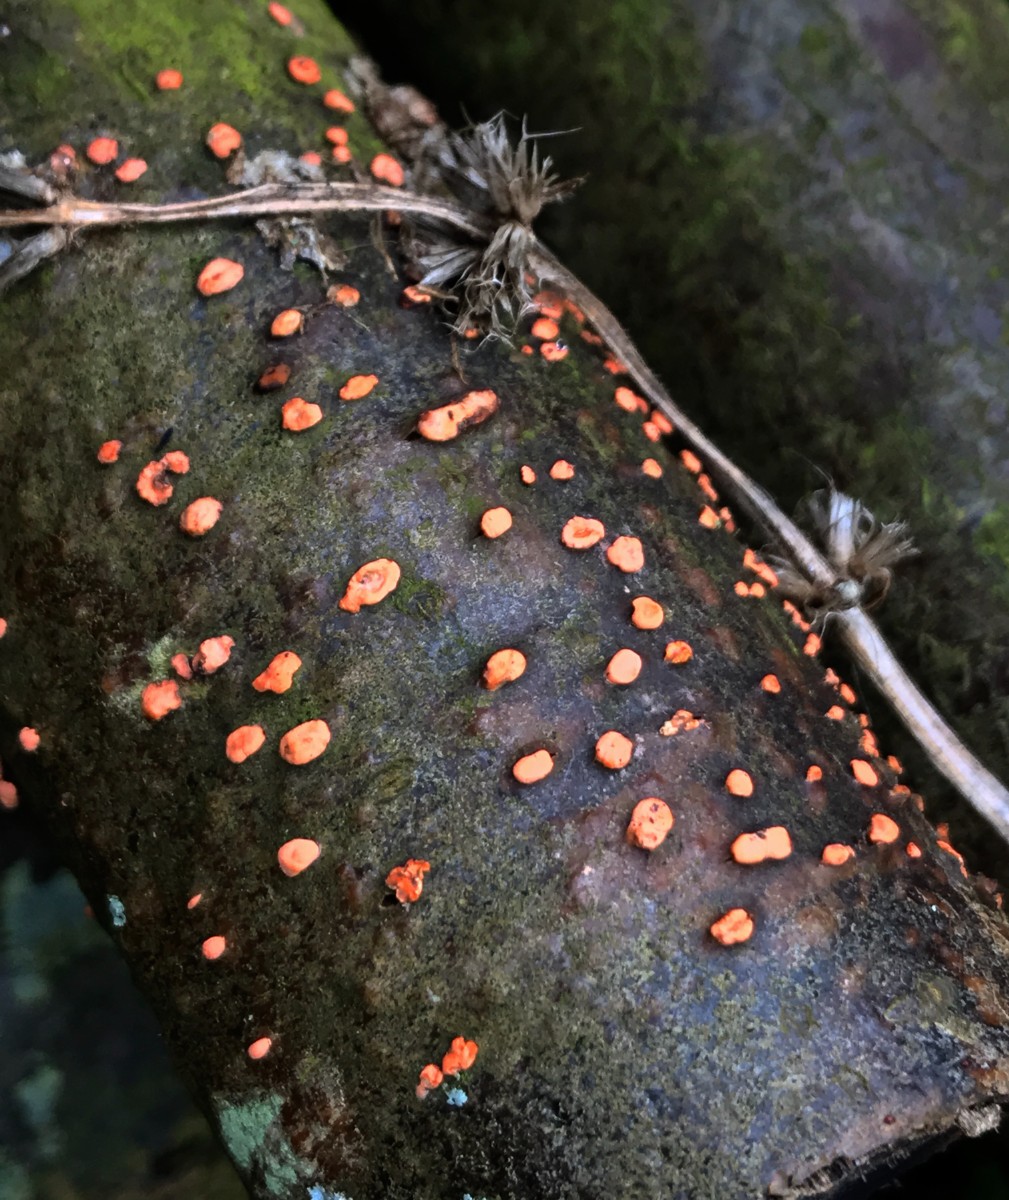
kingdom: Fungi
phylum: Ascomycota
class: Sordariomycetes
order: Hypocreales
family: Nectriaceae
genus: Nectria
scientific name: Nectria cinnabarina
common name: almindelig cinnobersvamp
